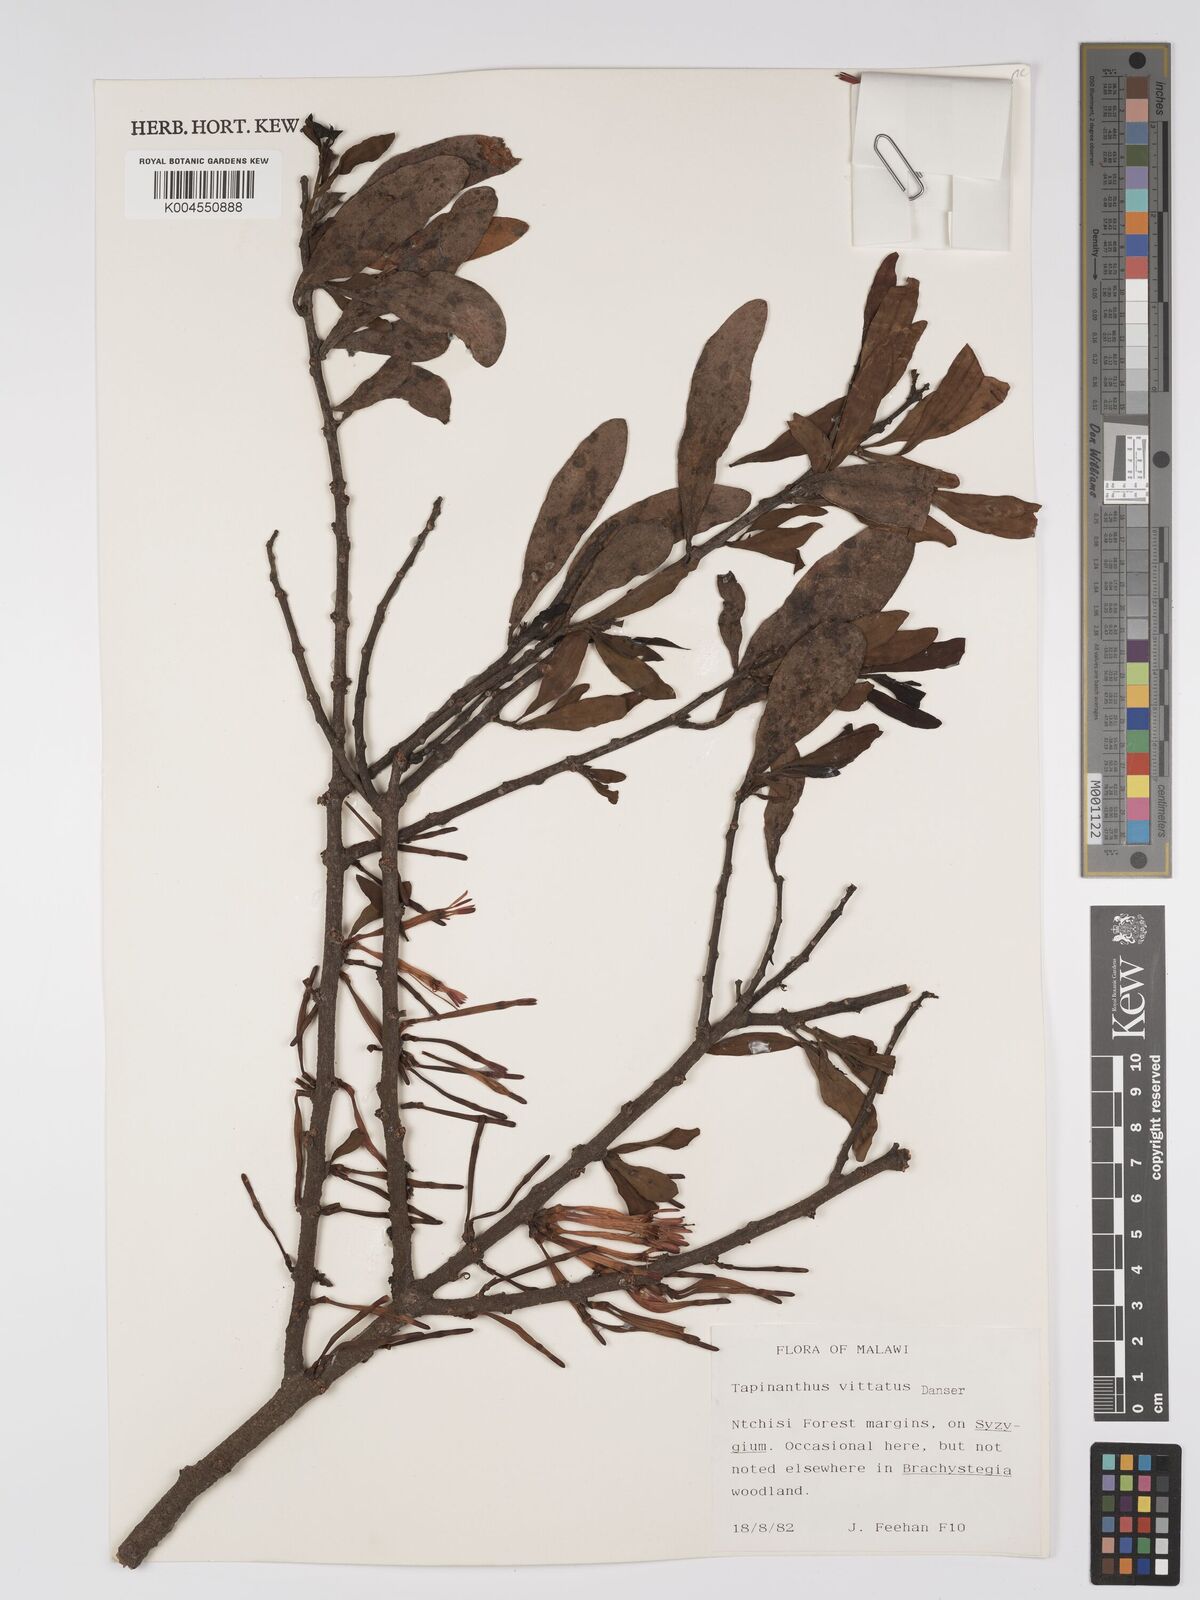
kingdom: Plantae
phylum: Tracheophyta
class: Magnoliopsida
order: Santalales
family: Loranthaceae
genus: Agelanthus
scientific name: Agelanthus zizyphifolius
